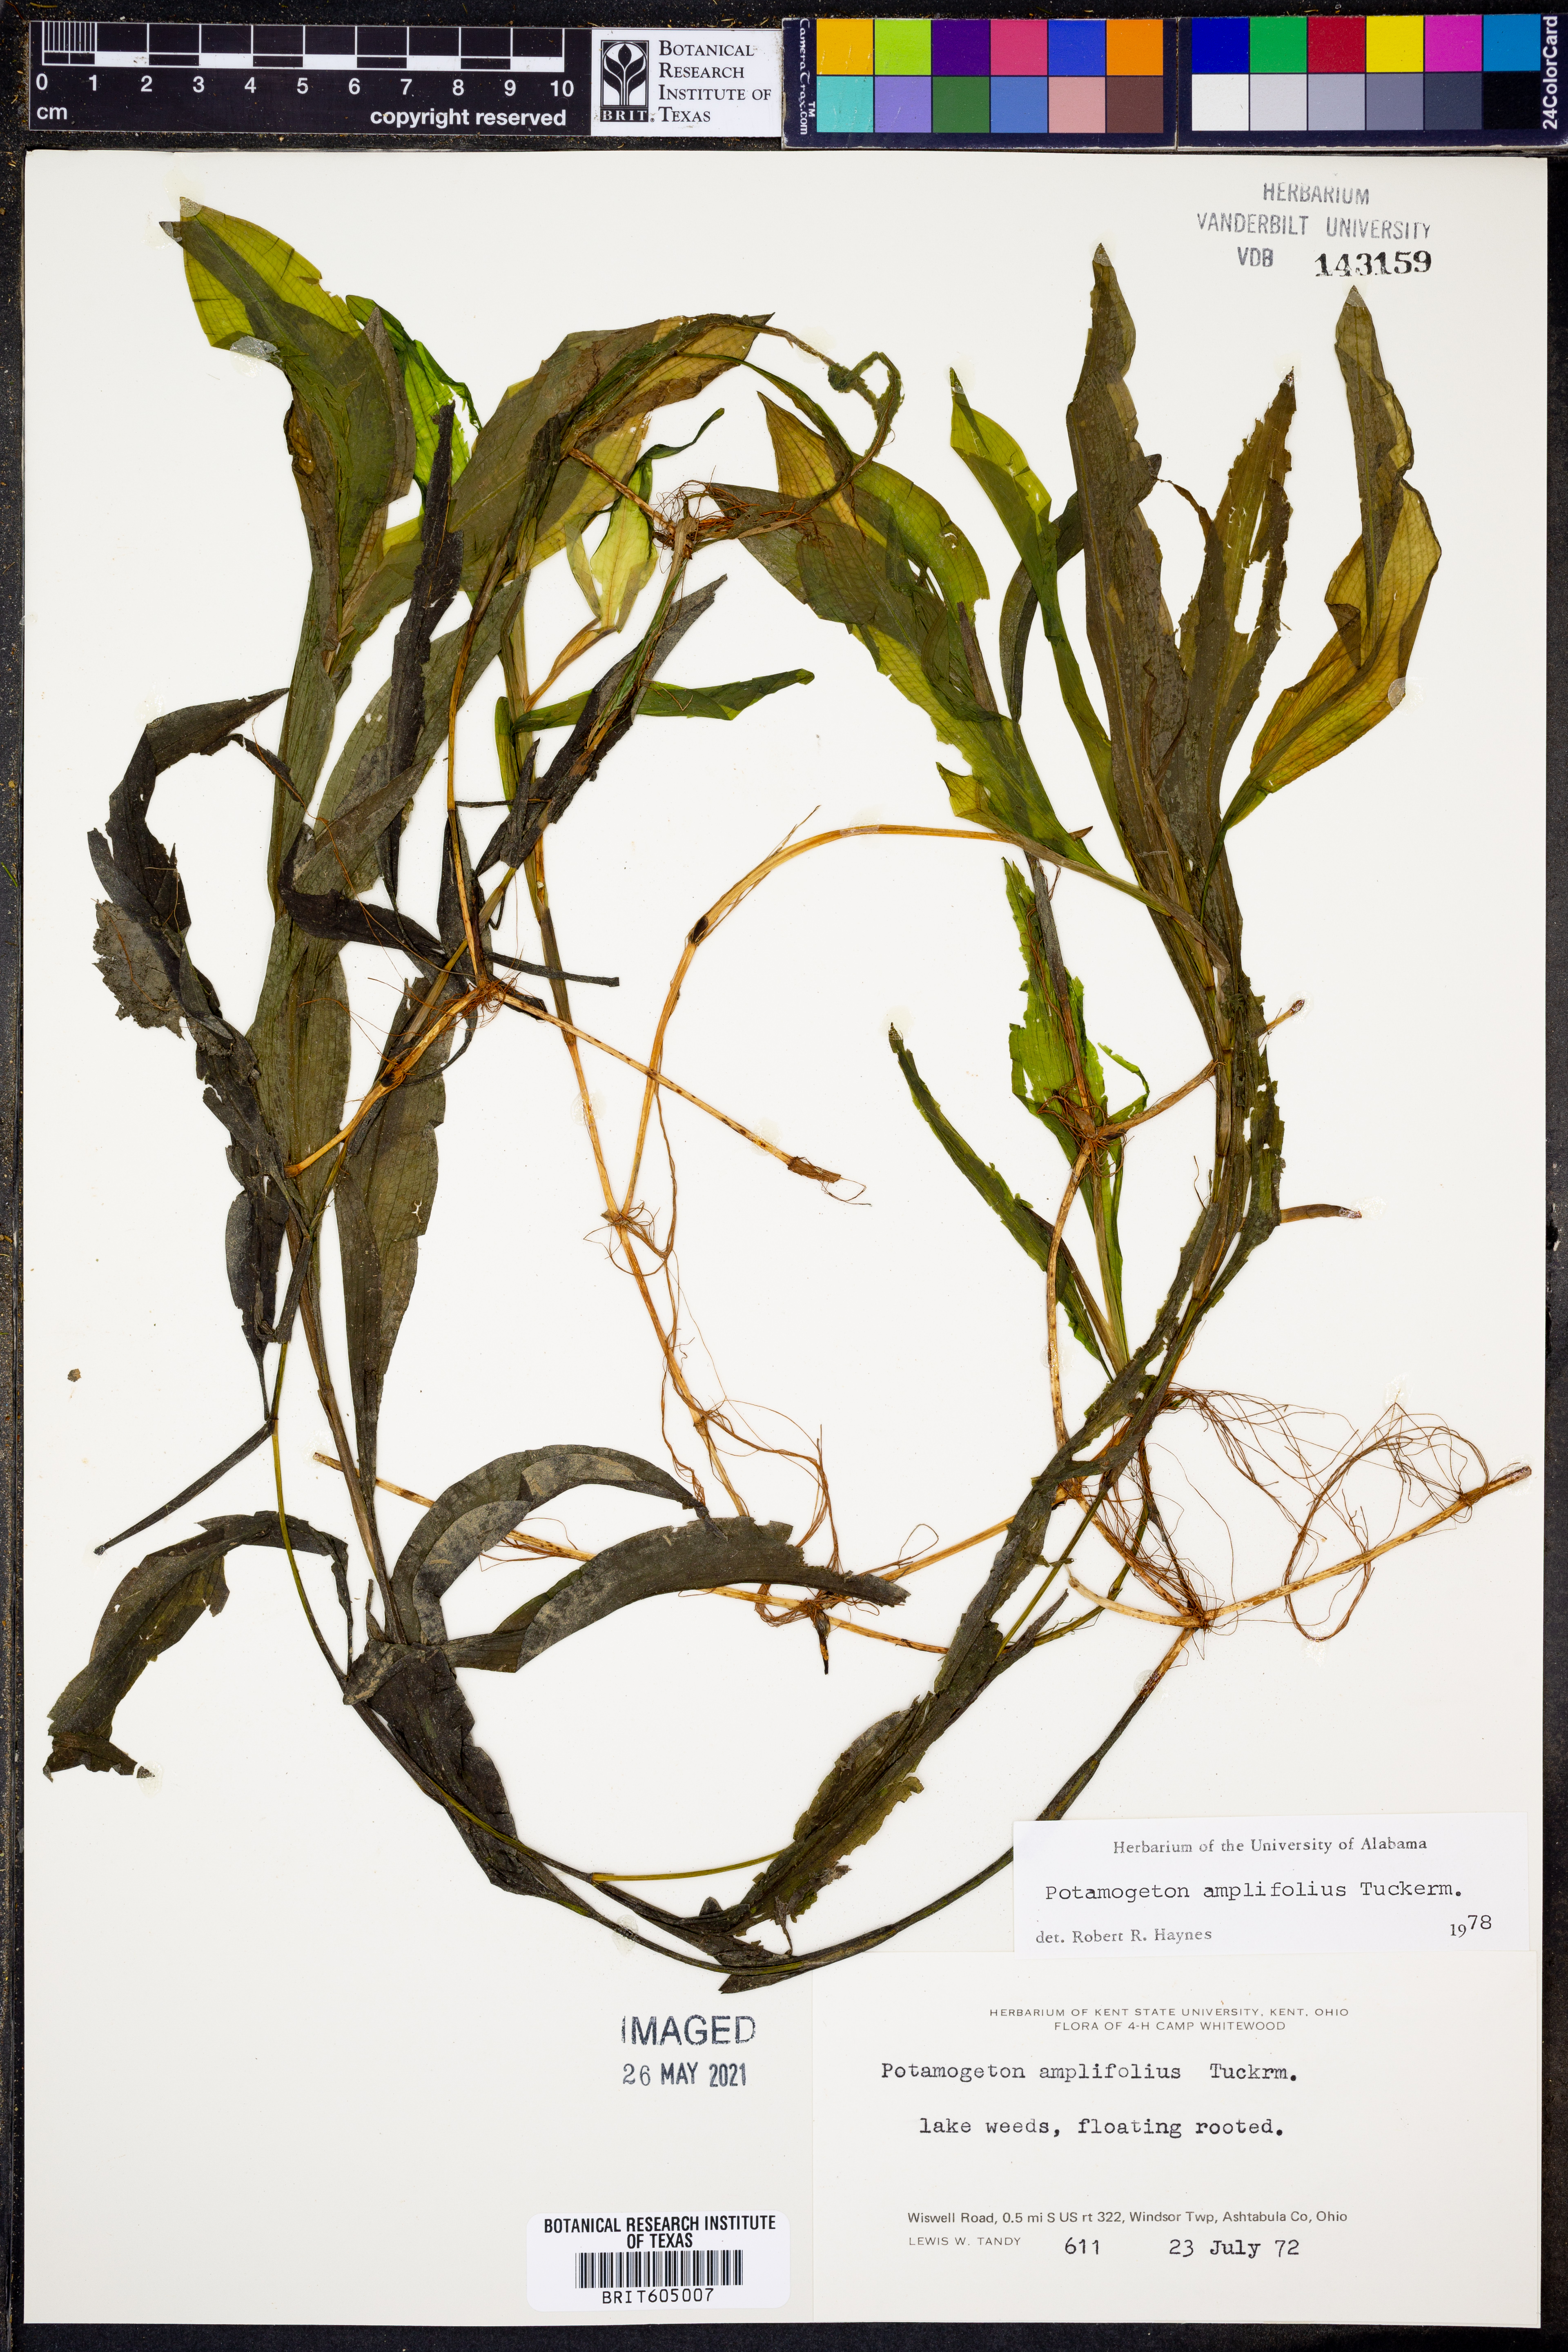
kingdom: Plantae
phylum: Tracheophyta
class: Liliopsida
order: Alismatales
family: Potamogetonaceae
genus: Potamogeton
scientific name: Potamogeton amplifolius
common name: Broad-leaved pondweed
